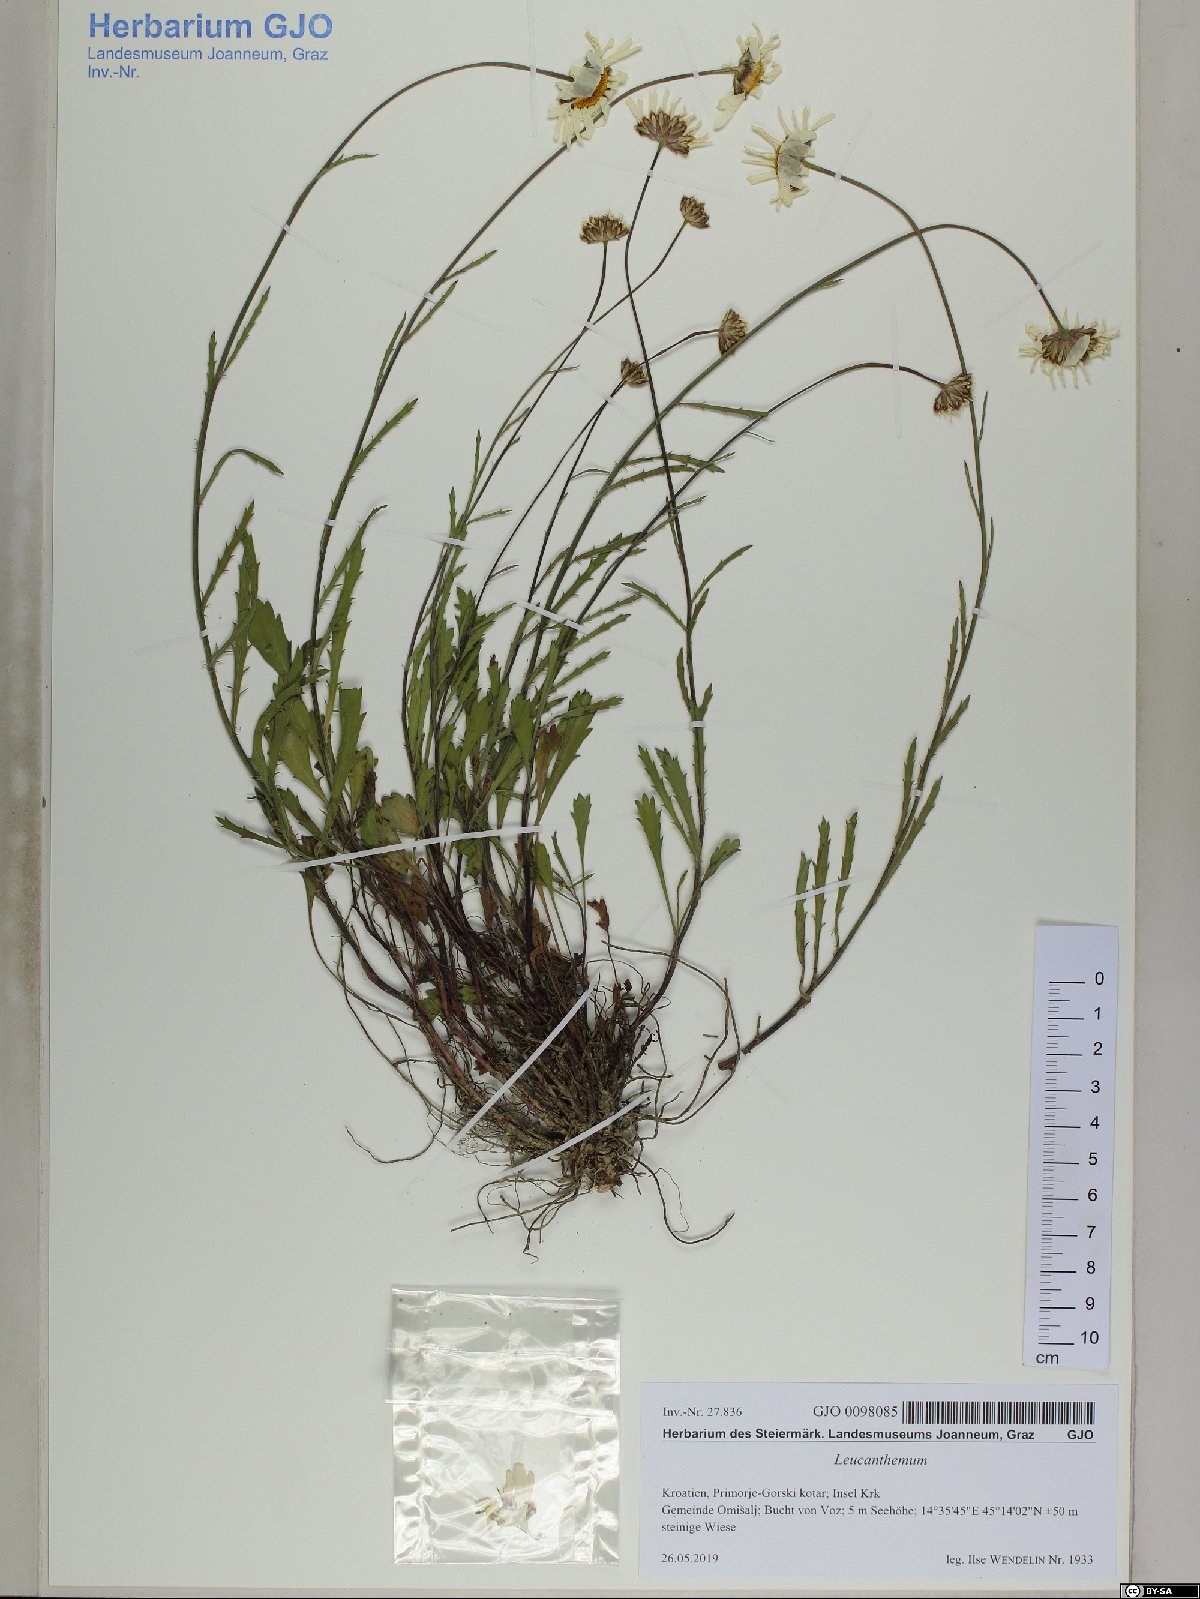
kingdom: Plantae
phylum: Tracheophyta
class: Magnoliopsida
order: Asterales
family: Asteraceae
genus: Leucanthemum
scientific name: Leucanthemum platylepis
